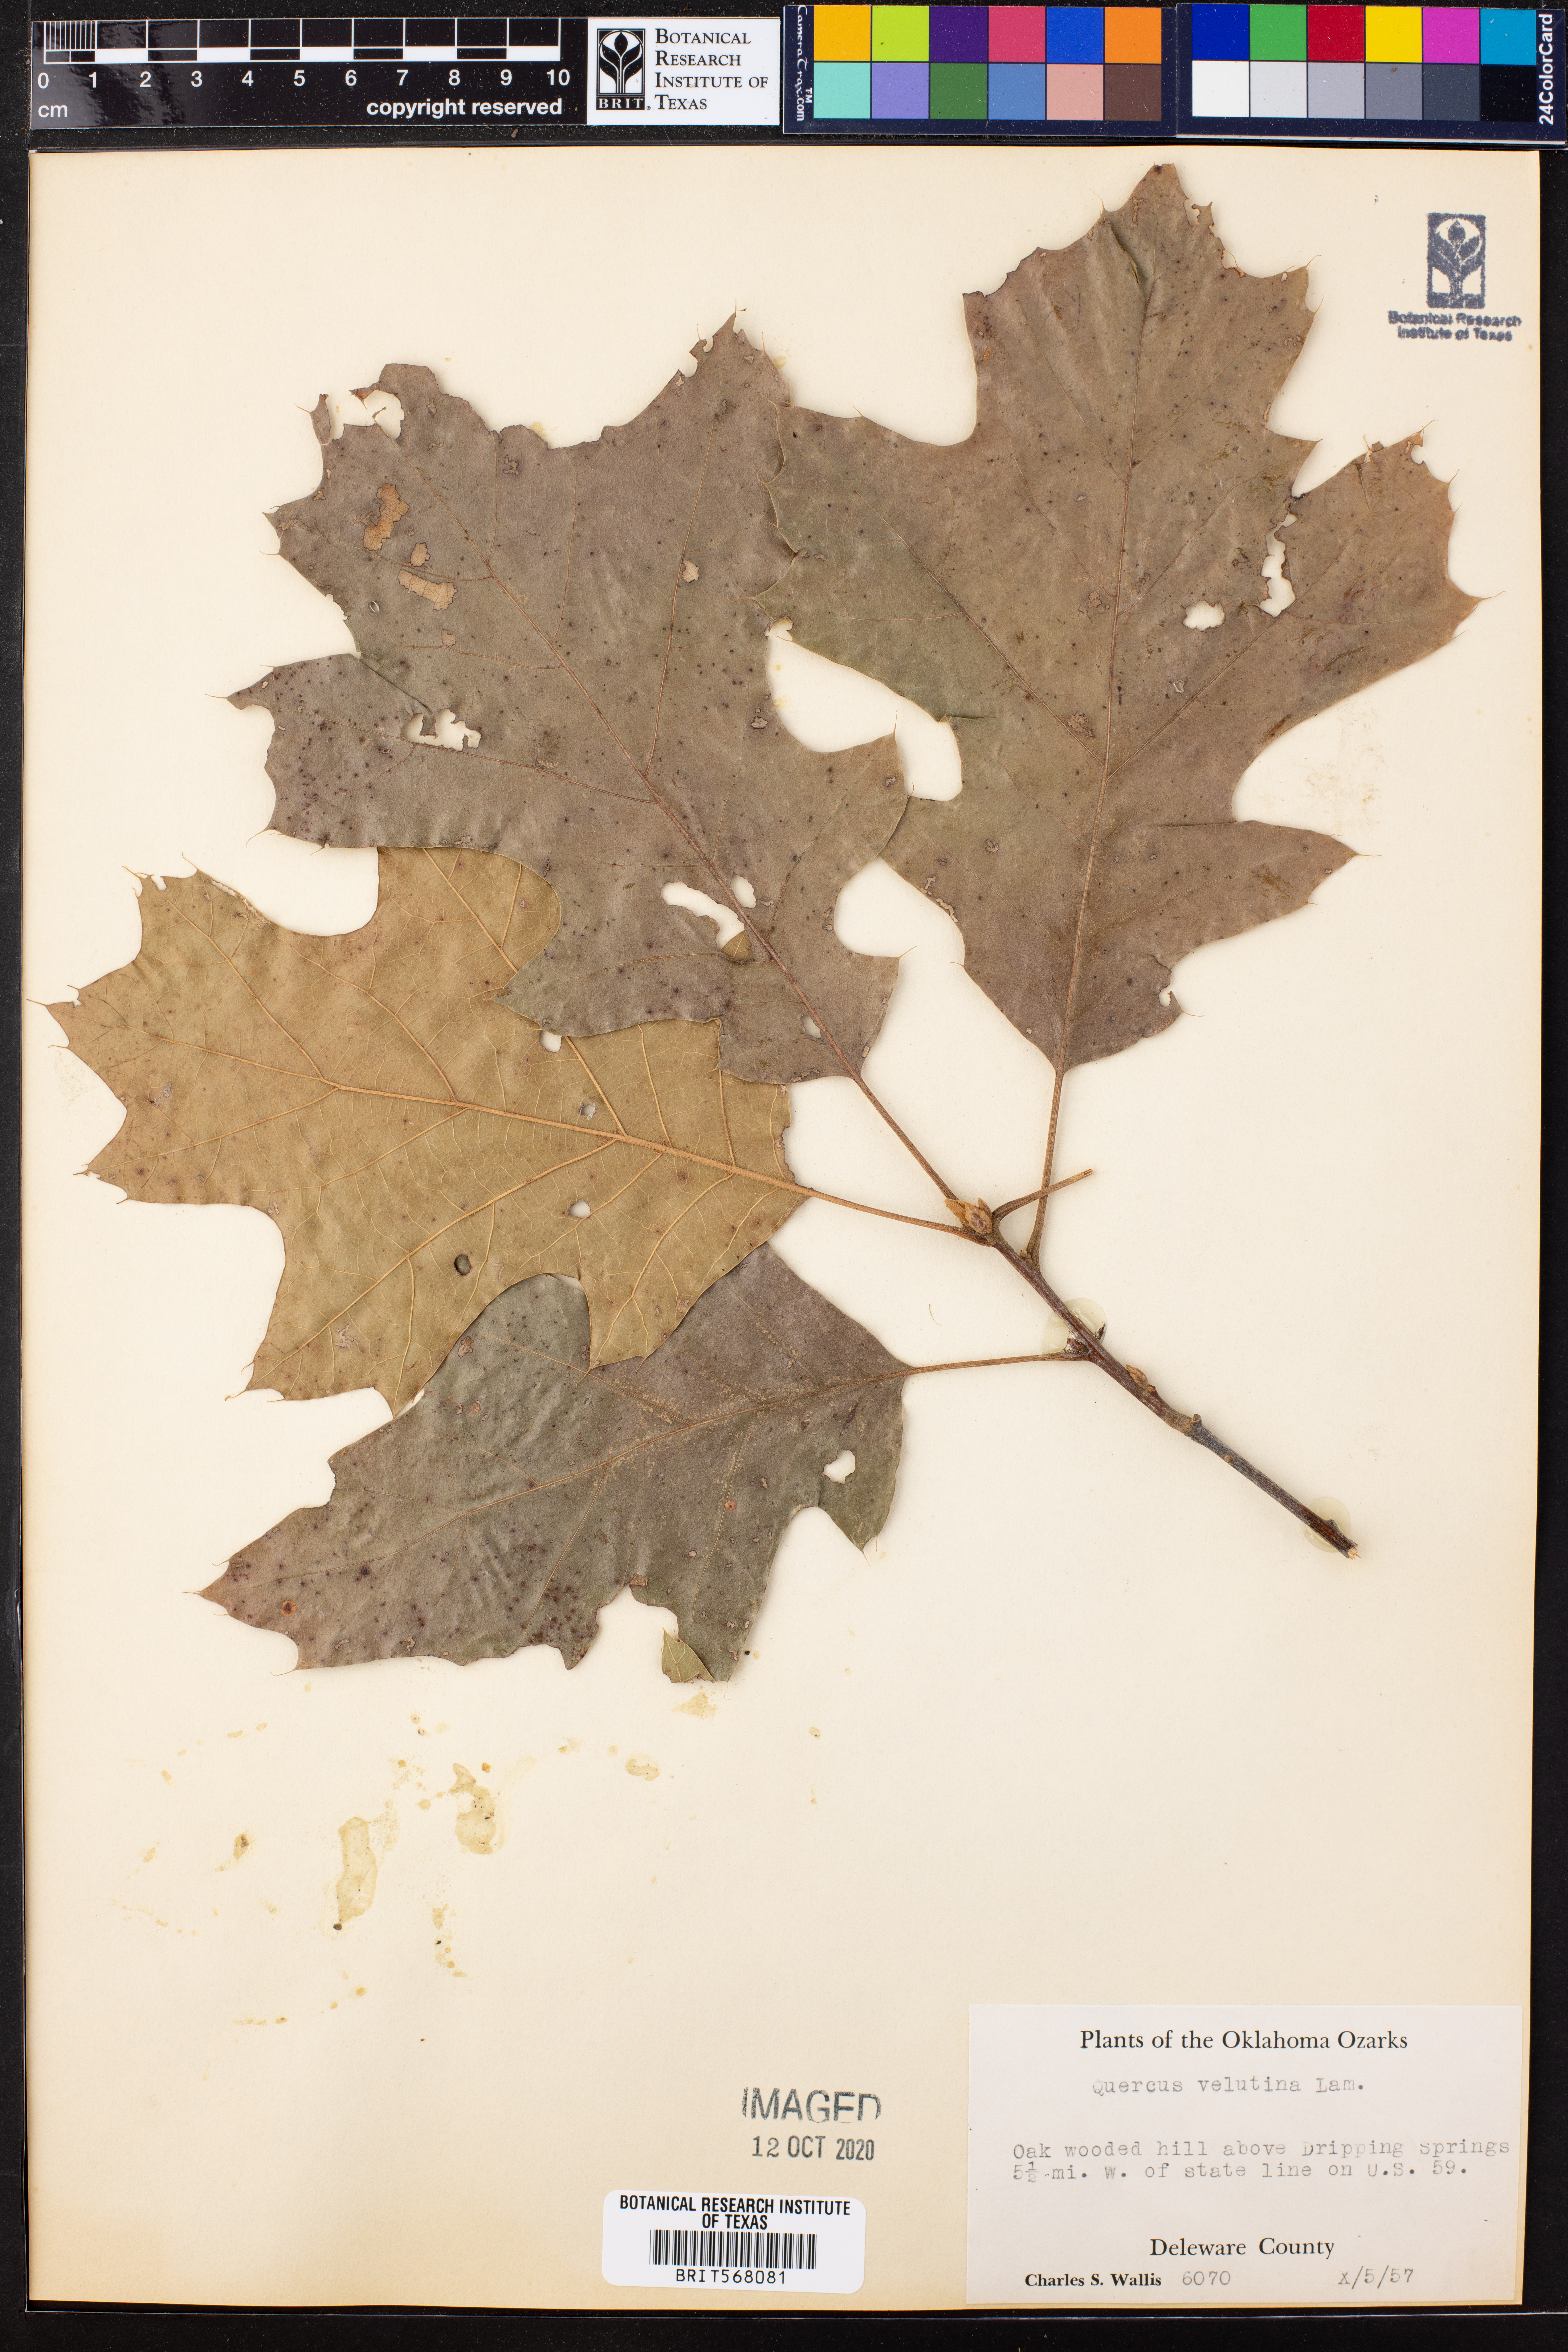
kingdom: Plantae
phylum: Tracheophyta
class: Magnoliopsida
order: Fagales
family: Fagaceae
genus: Quercus
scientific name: Quercus velutina
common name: Black oak
